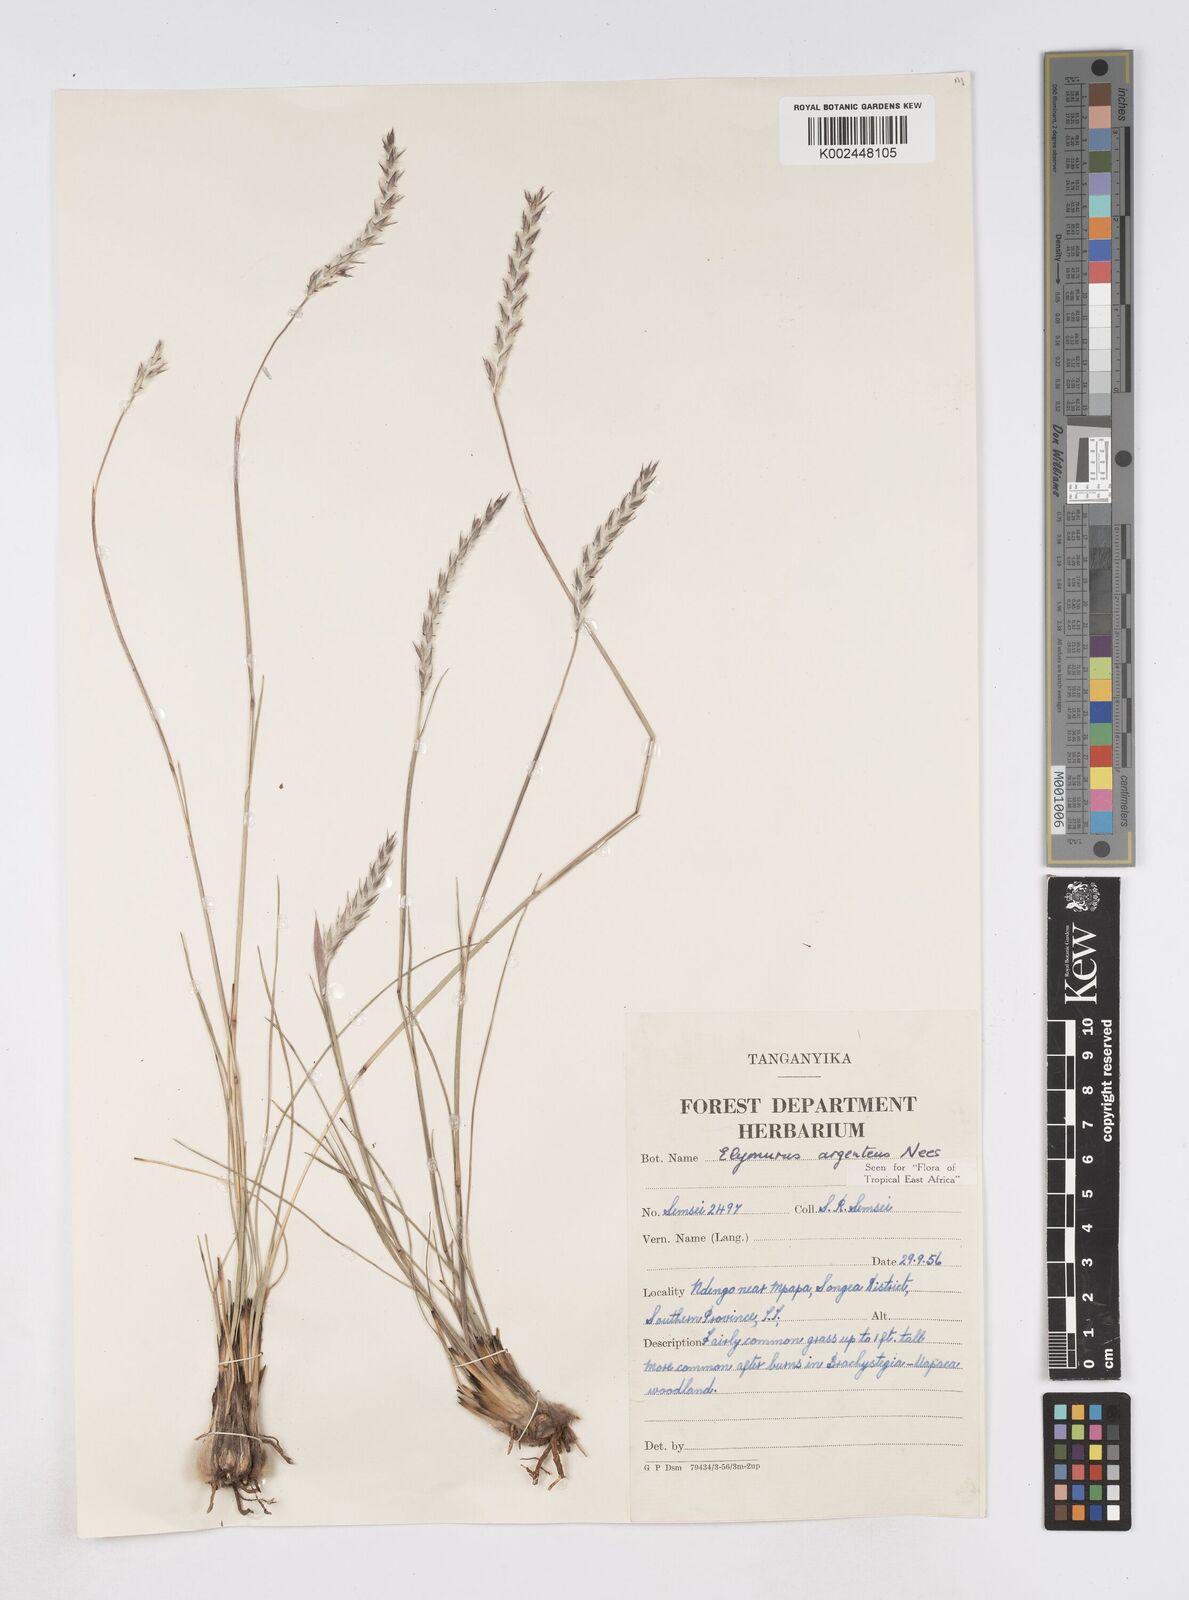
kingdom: Plantae
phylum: Tracheophyta
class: Liliopsida
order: Poales
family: Poaceae
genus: Elionurus
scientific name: Elionurus muticus
